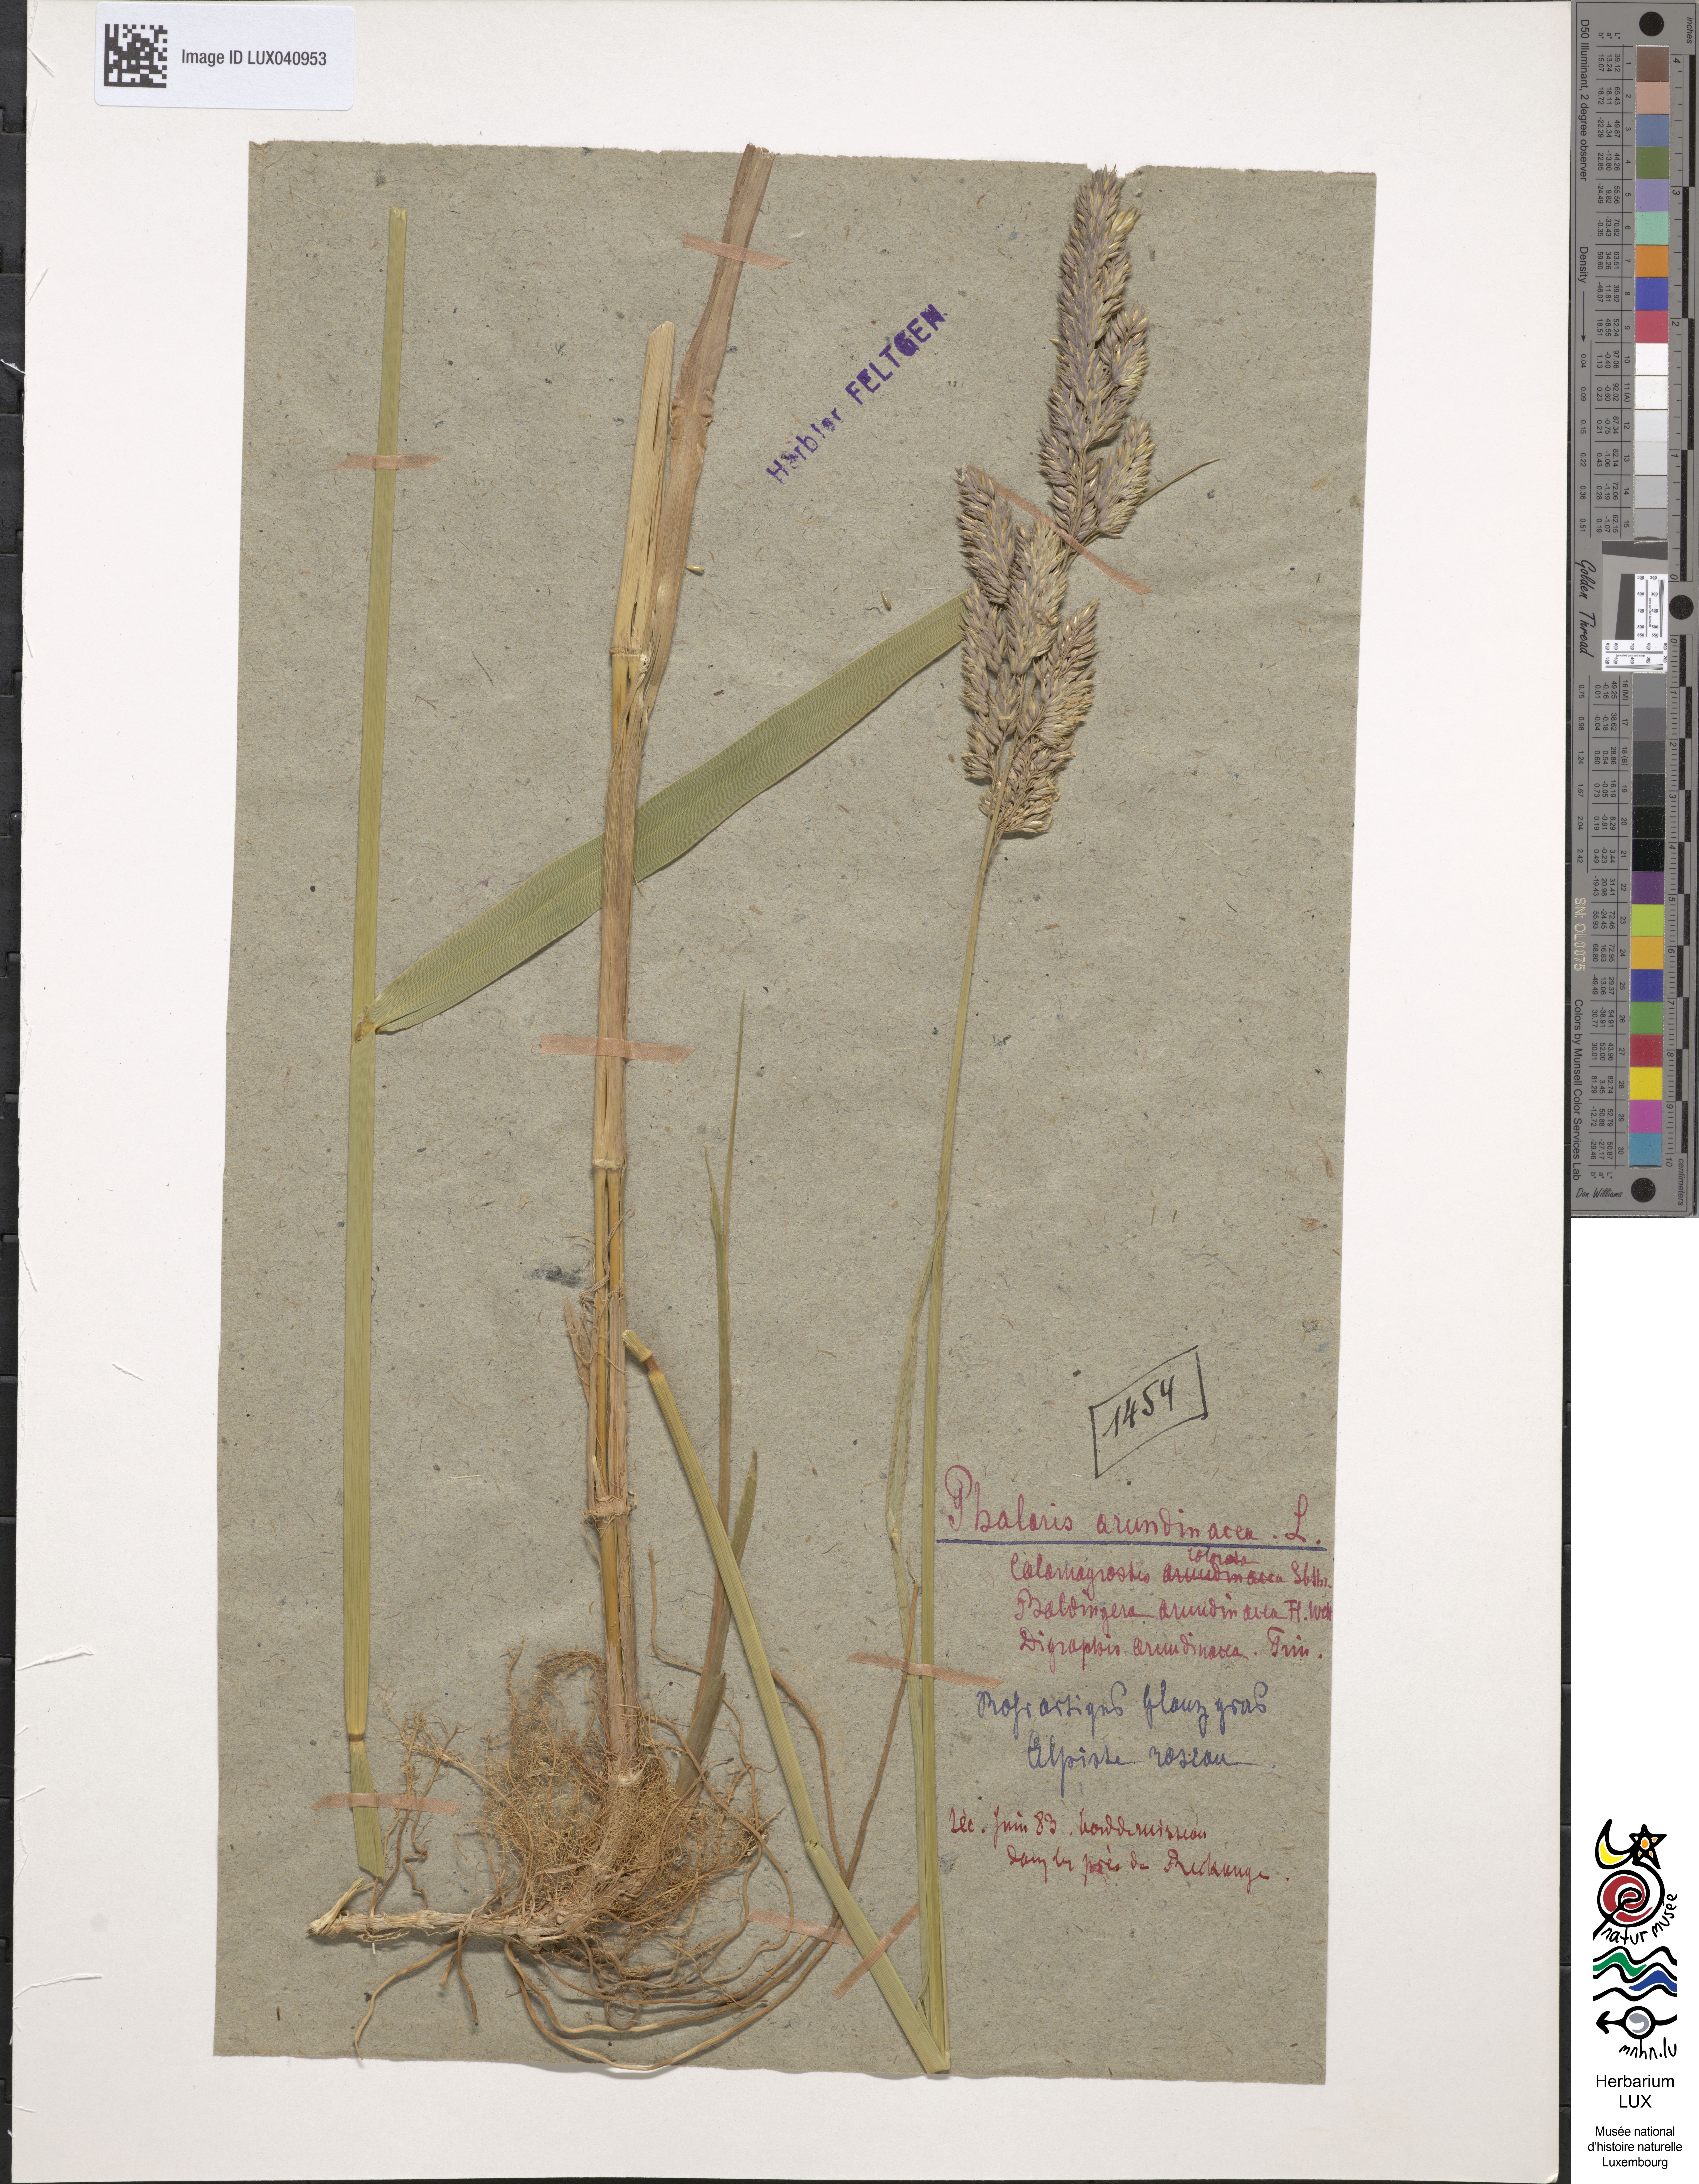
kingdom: Plantae
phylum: Tracheophyta
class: Liliopsida
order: Poales
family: Poaceae
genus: Phalaris
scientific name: Phalaris arundinacea
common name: Reed canary-grass
